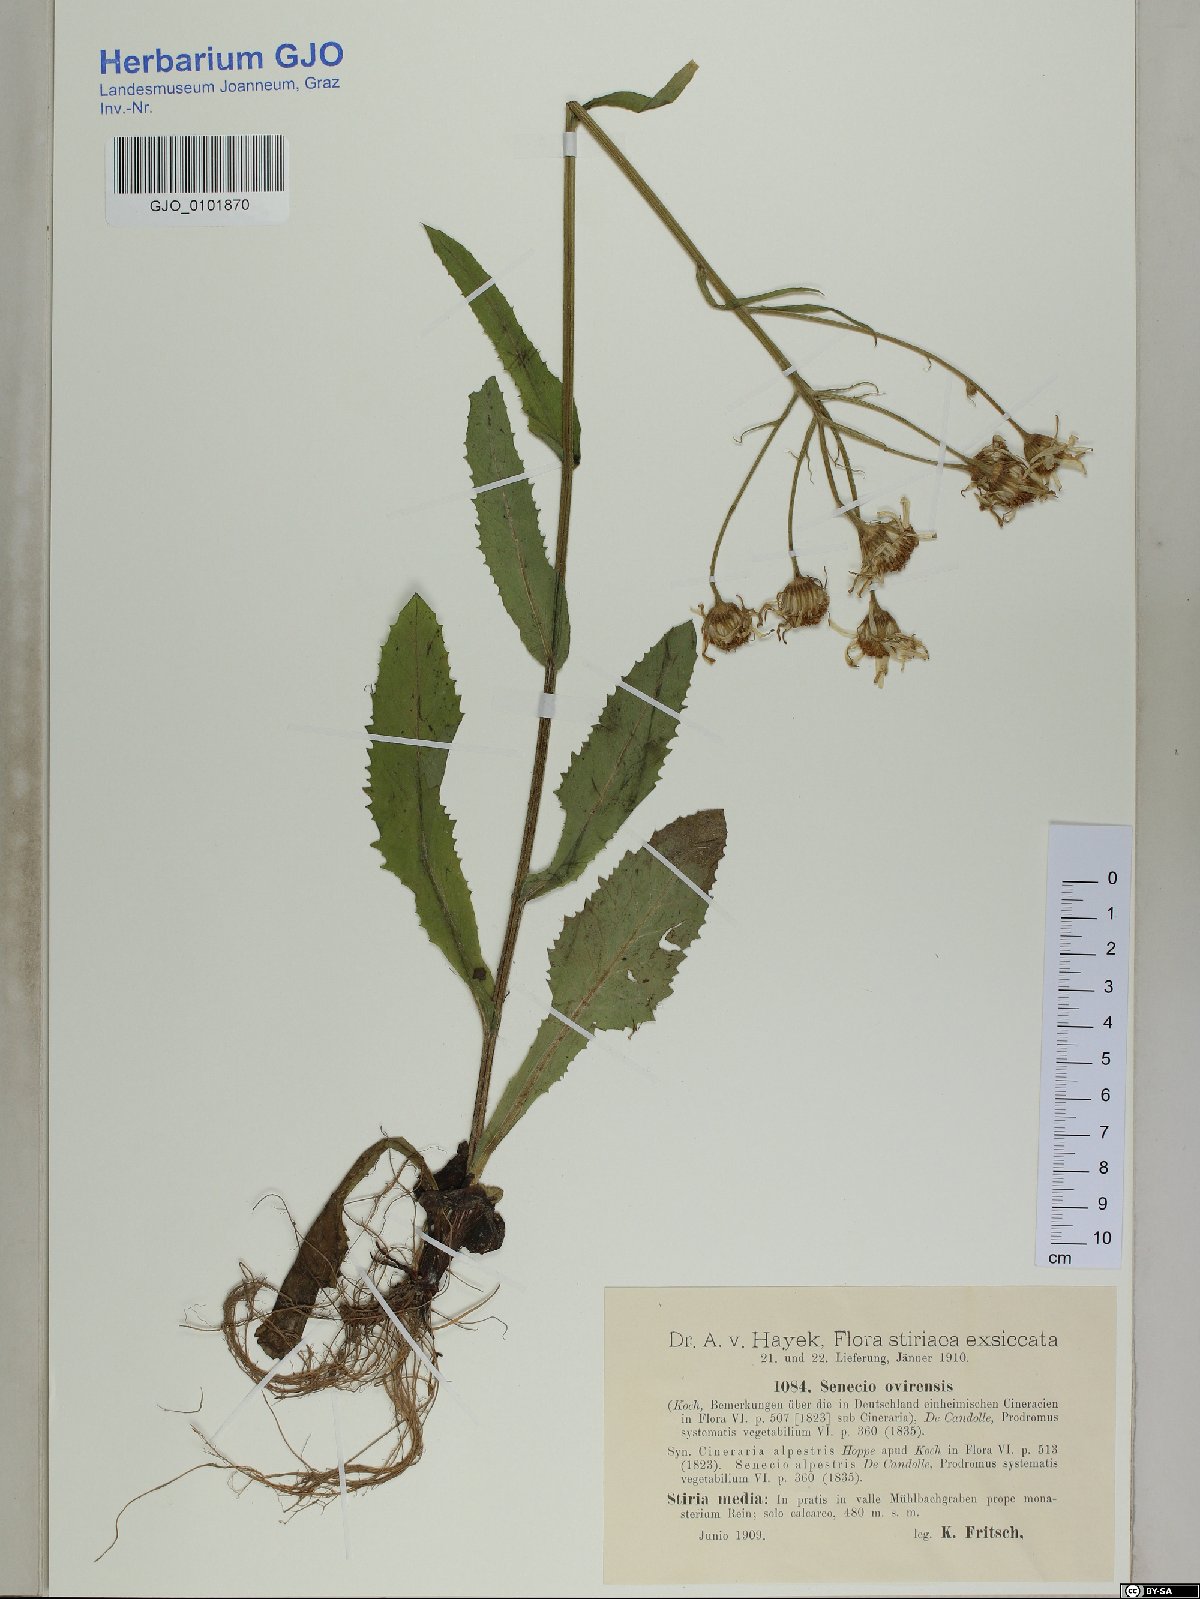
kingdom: Plantae
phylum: Tracheophyta
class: Magnoliopsida
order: Asterales
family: Asteraceae
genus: Tephroseris
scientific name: Tephroseris longifolia
